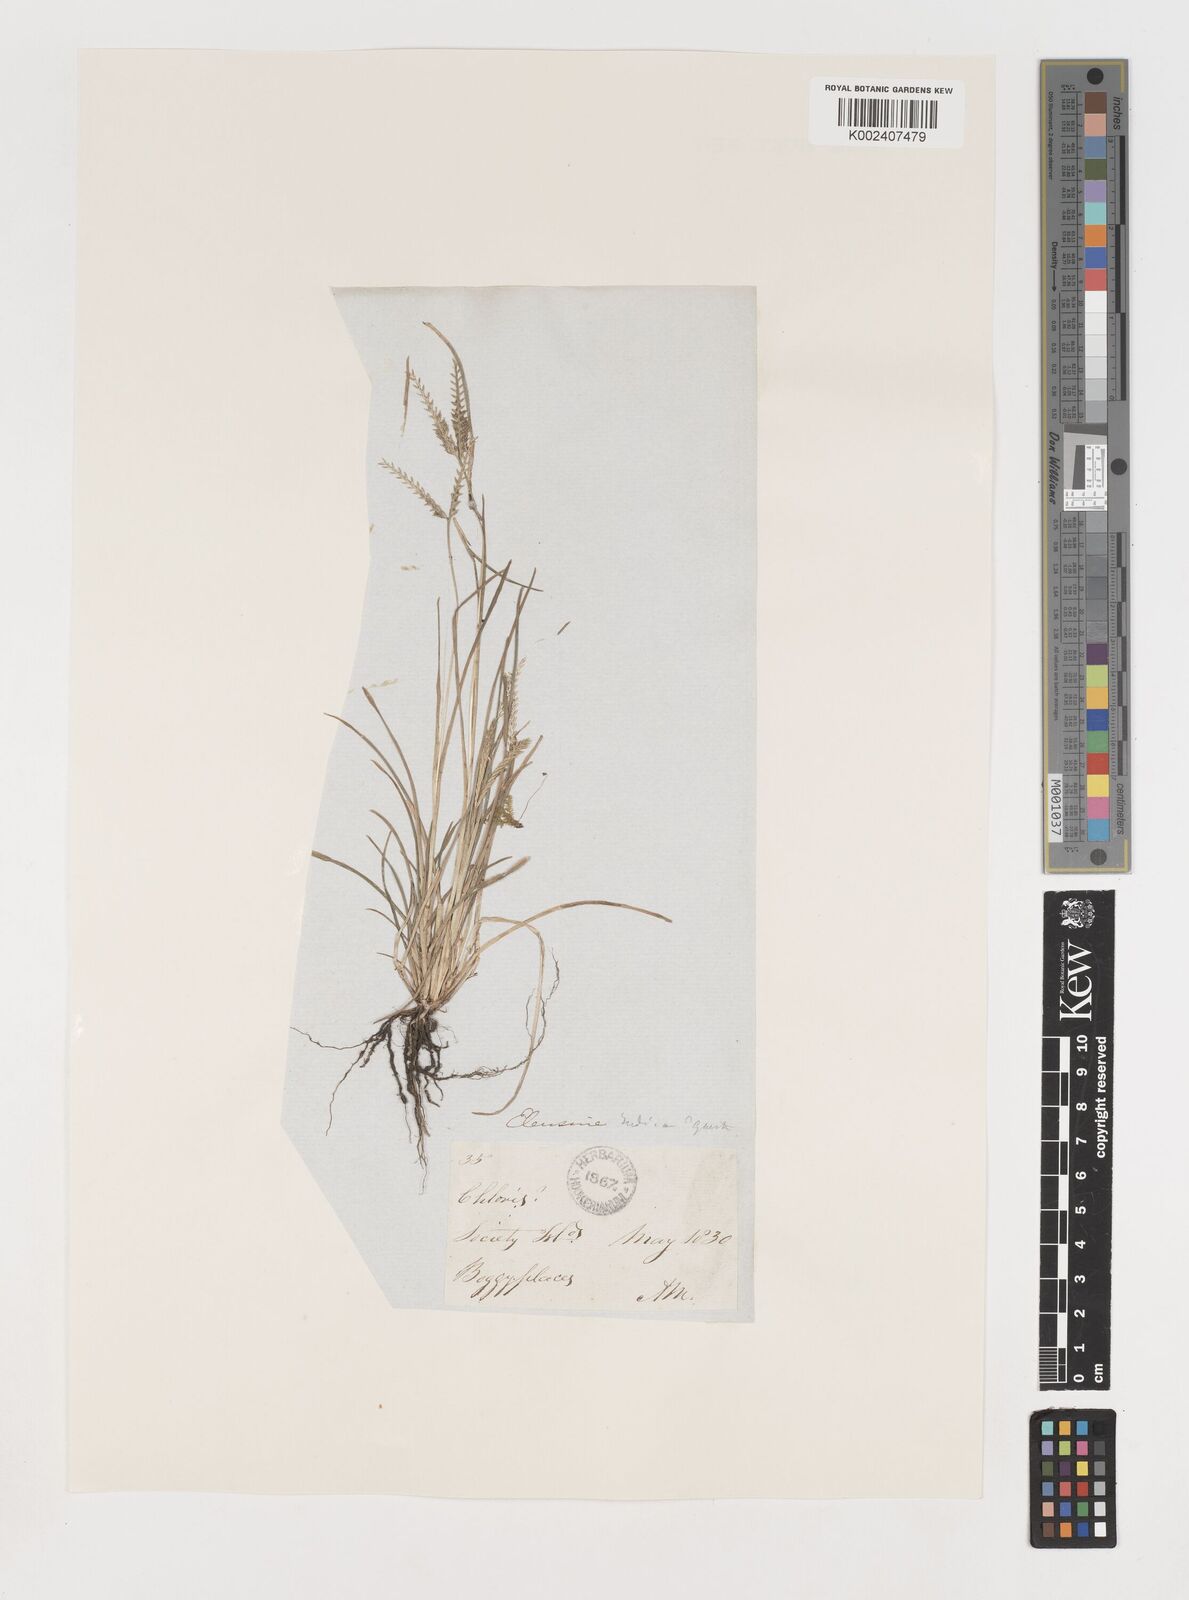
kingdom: Plantae
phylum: Tracheophyta
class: Liliopsida
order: Poales
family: Poaceae
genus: Eleusine
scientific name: Eleusine indica
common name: Yard-grass
